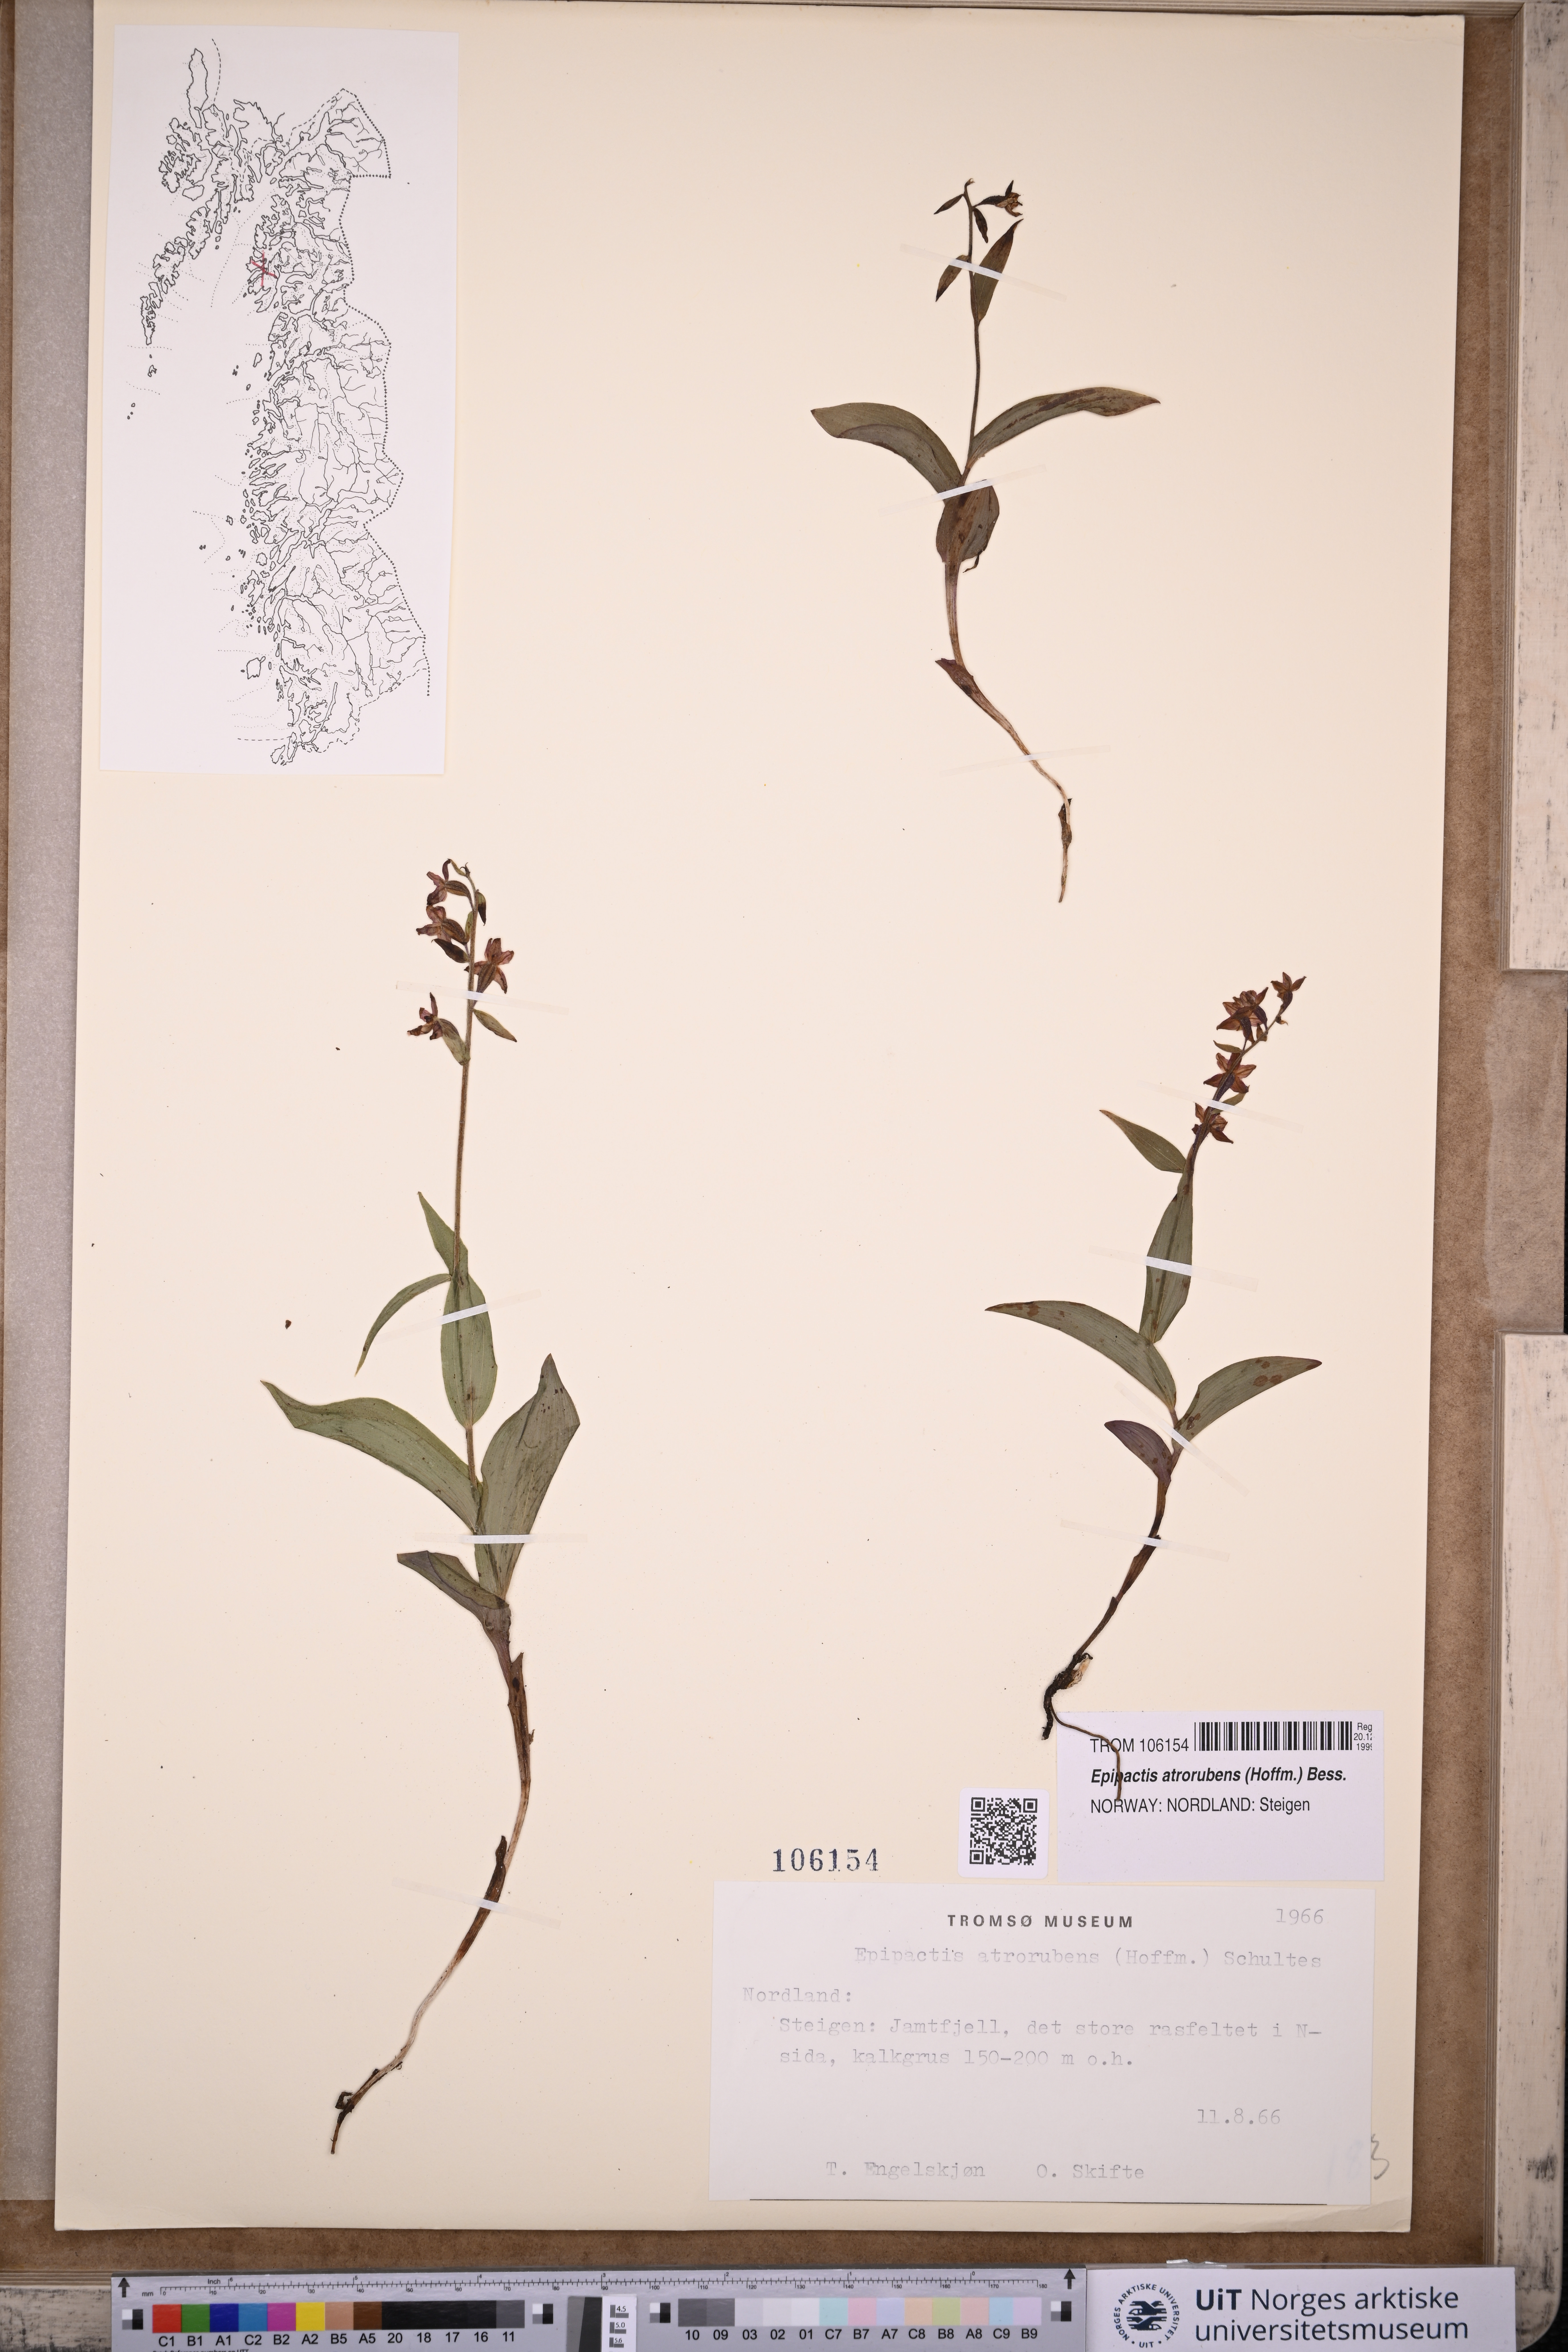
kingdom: Plantae
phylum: Tracheophyta
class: Liliopsida
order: Asparagales
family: Orchidaceae
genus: Epipactis
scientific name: Epipactis atrorubens
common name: Dark-red helleborine
